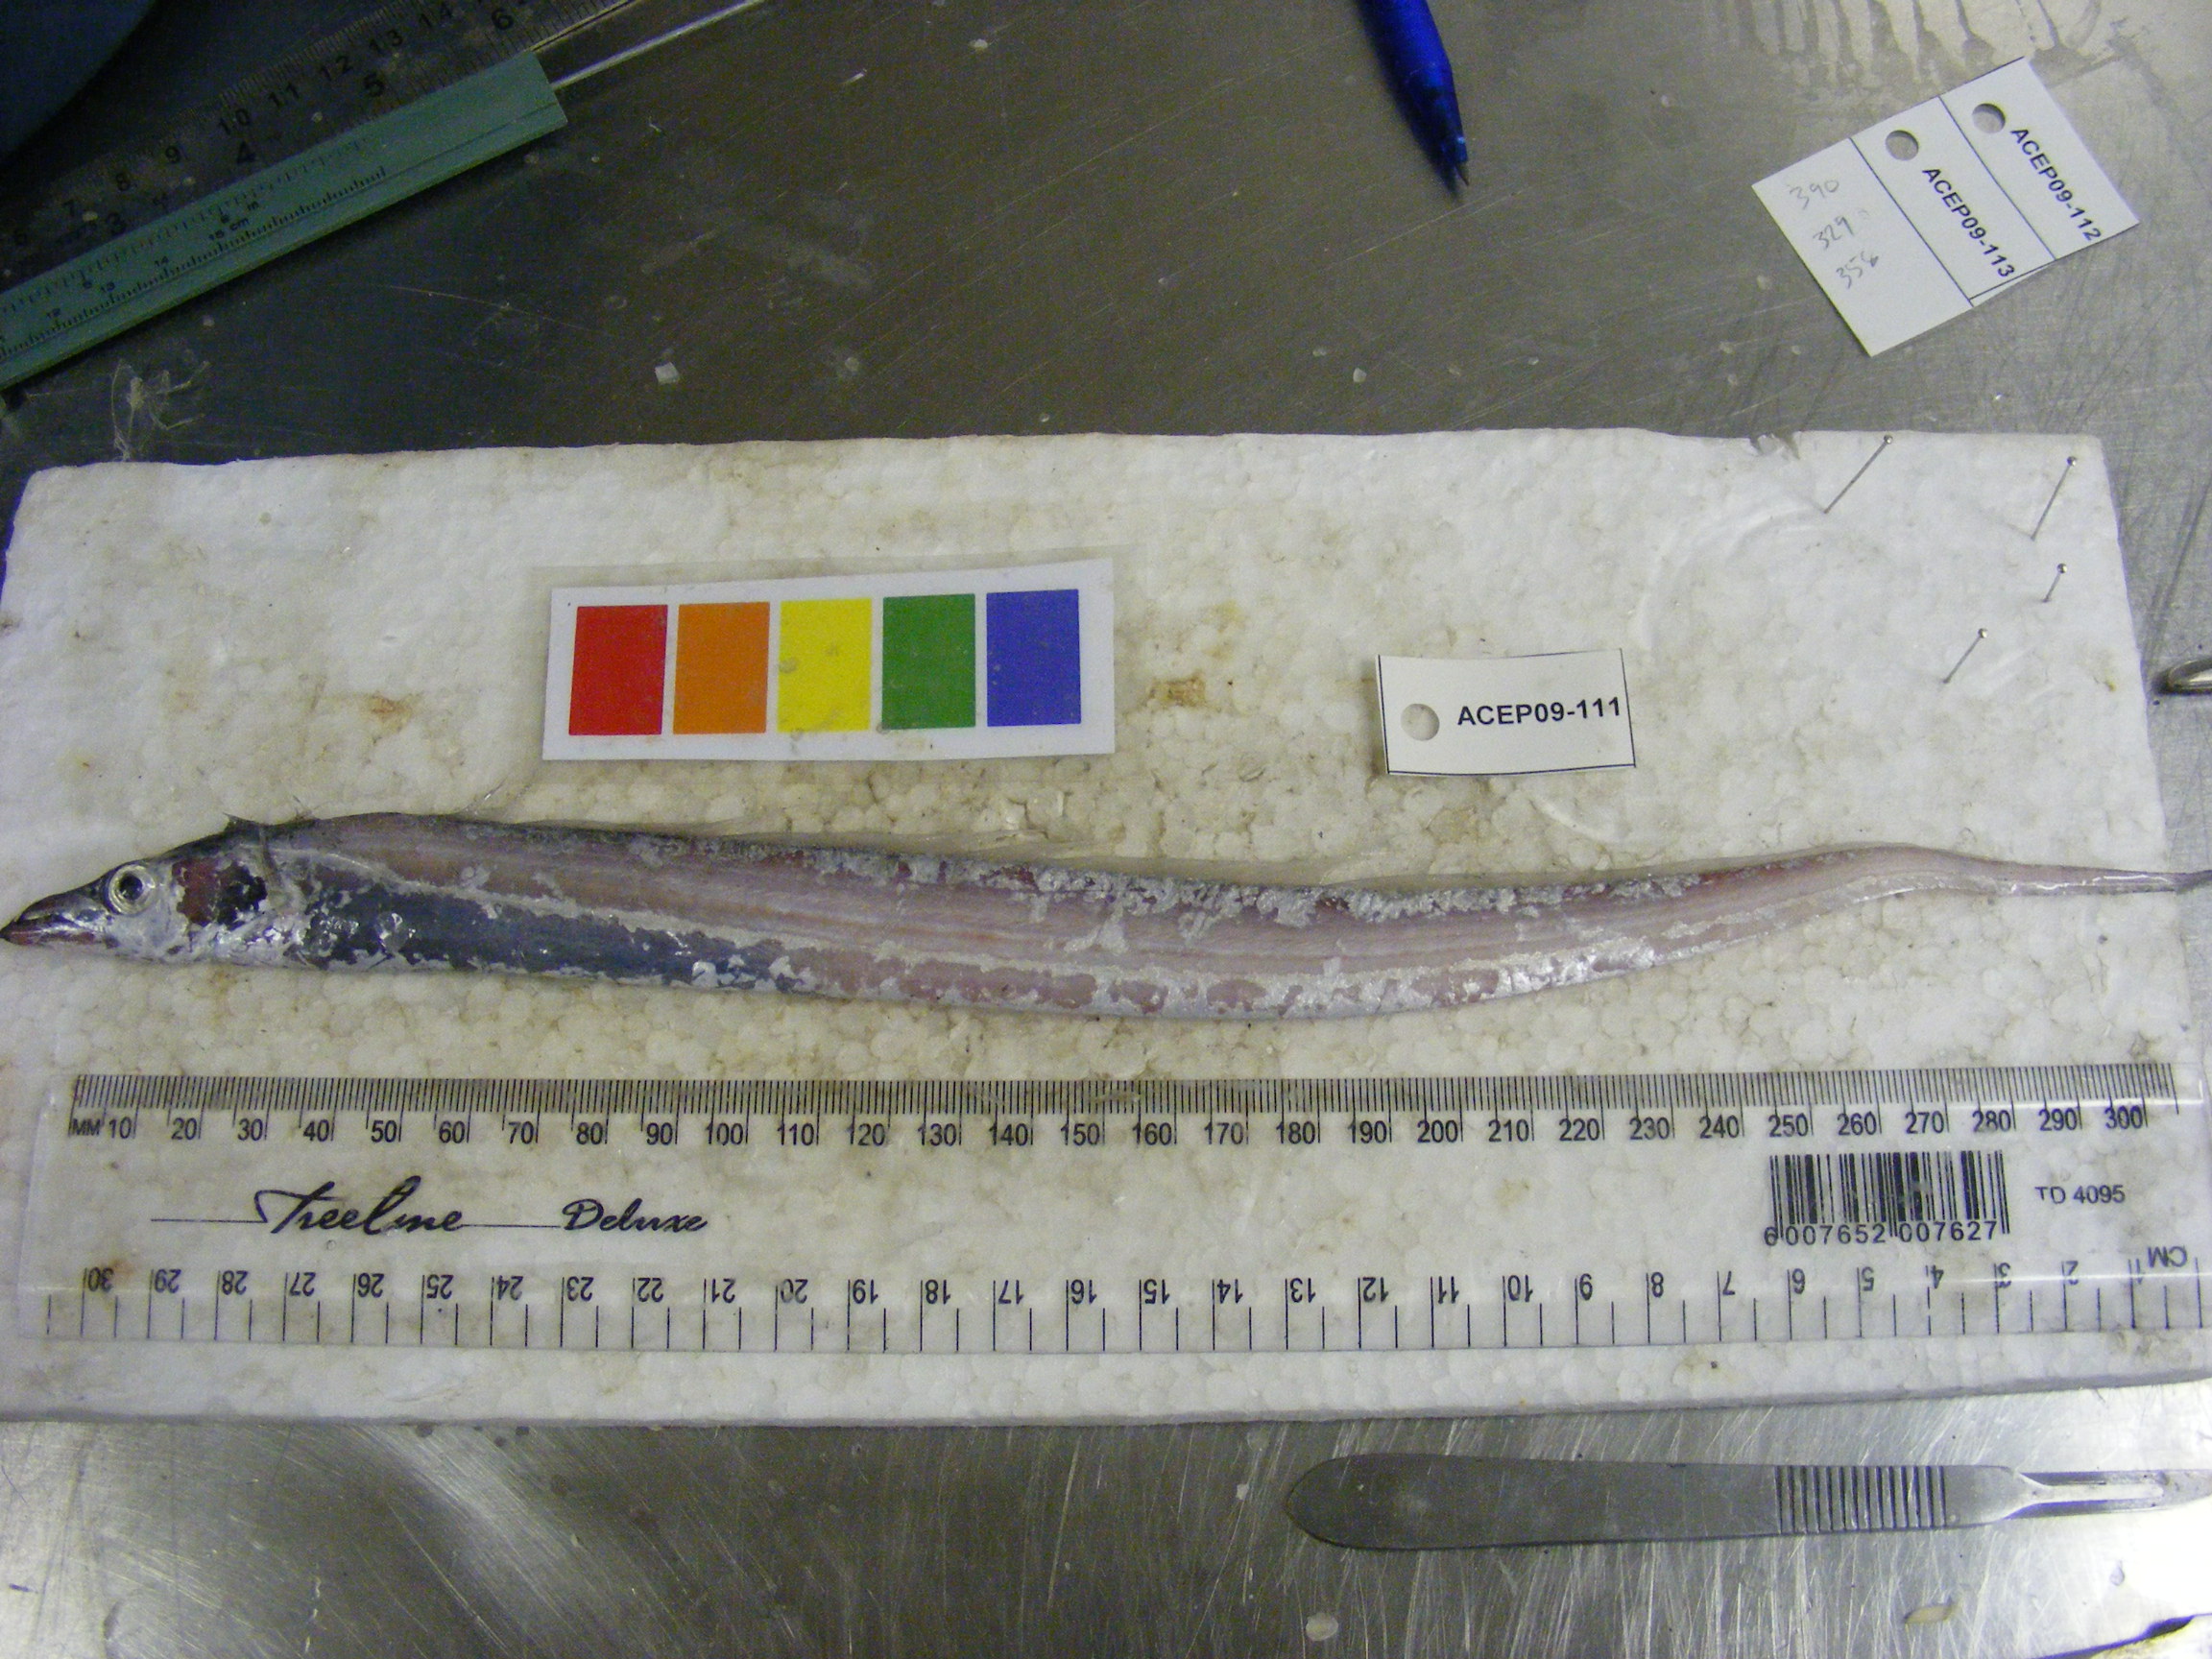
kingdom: Animalia
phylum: Chordata
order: Perciformes
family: Trichiuridae
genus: Trichiurus
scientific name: Trichiurus lepturus
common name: Largehead hairtail
